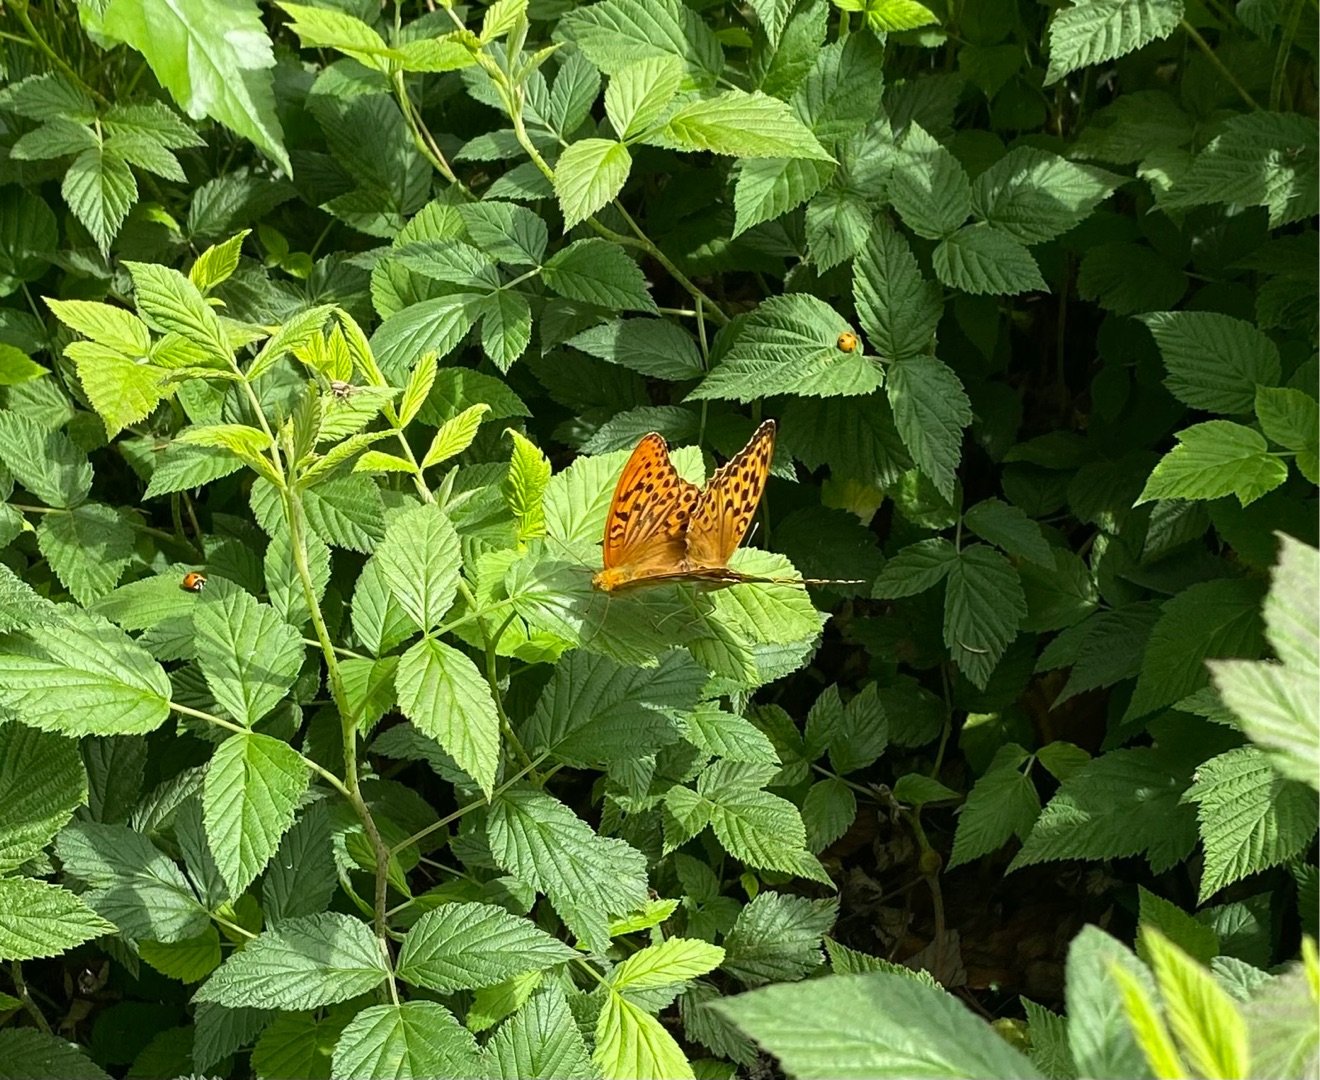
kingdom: Animalia
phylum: Arthropoda
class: Insecta
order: Lepidoptera
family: Nymphalidae
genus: Argynnis
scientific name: Argynnis paphia
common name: Kejserkåbe
